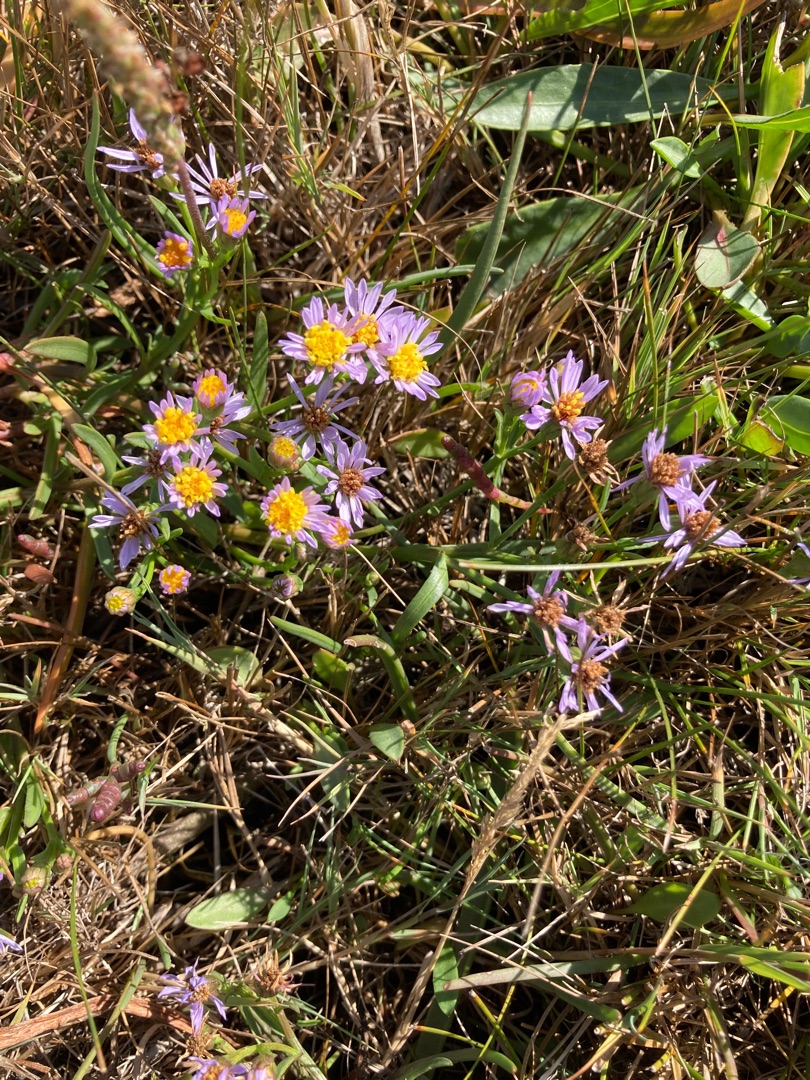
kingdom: Plantae
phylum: Tracheophyta
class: Magnoliopsida
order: Asterales
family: Asteraceae
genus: Tripolium
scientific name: Tripolium pannonicum
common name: Strandasters
